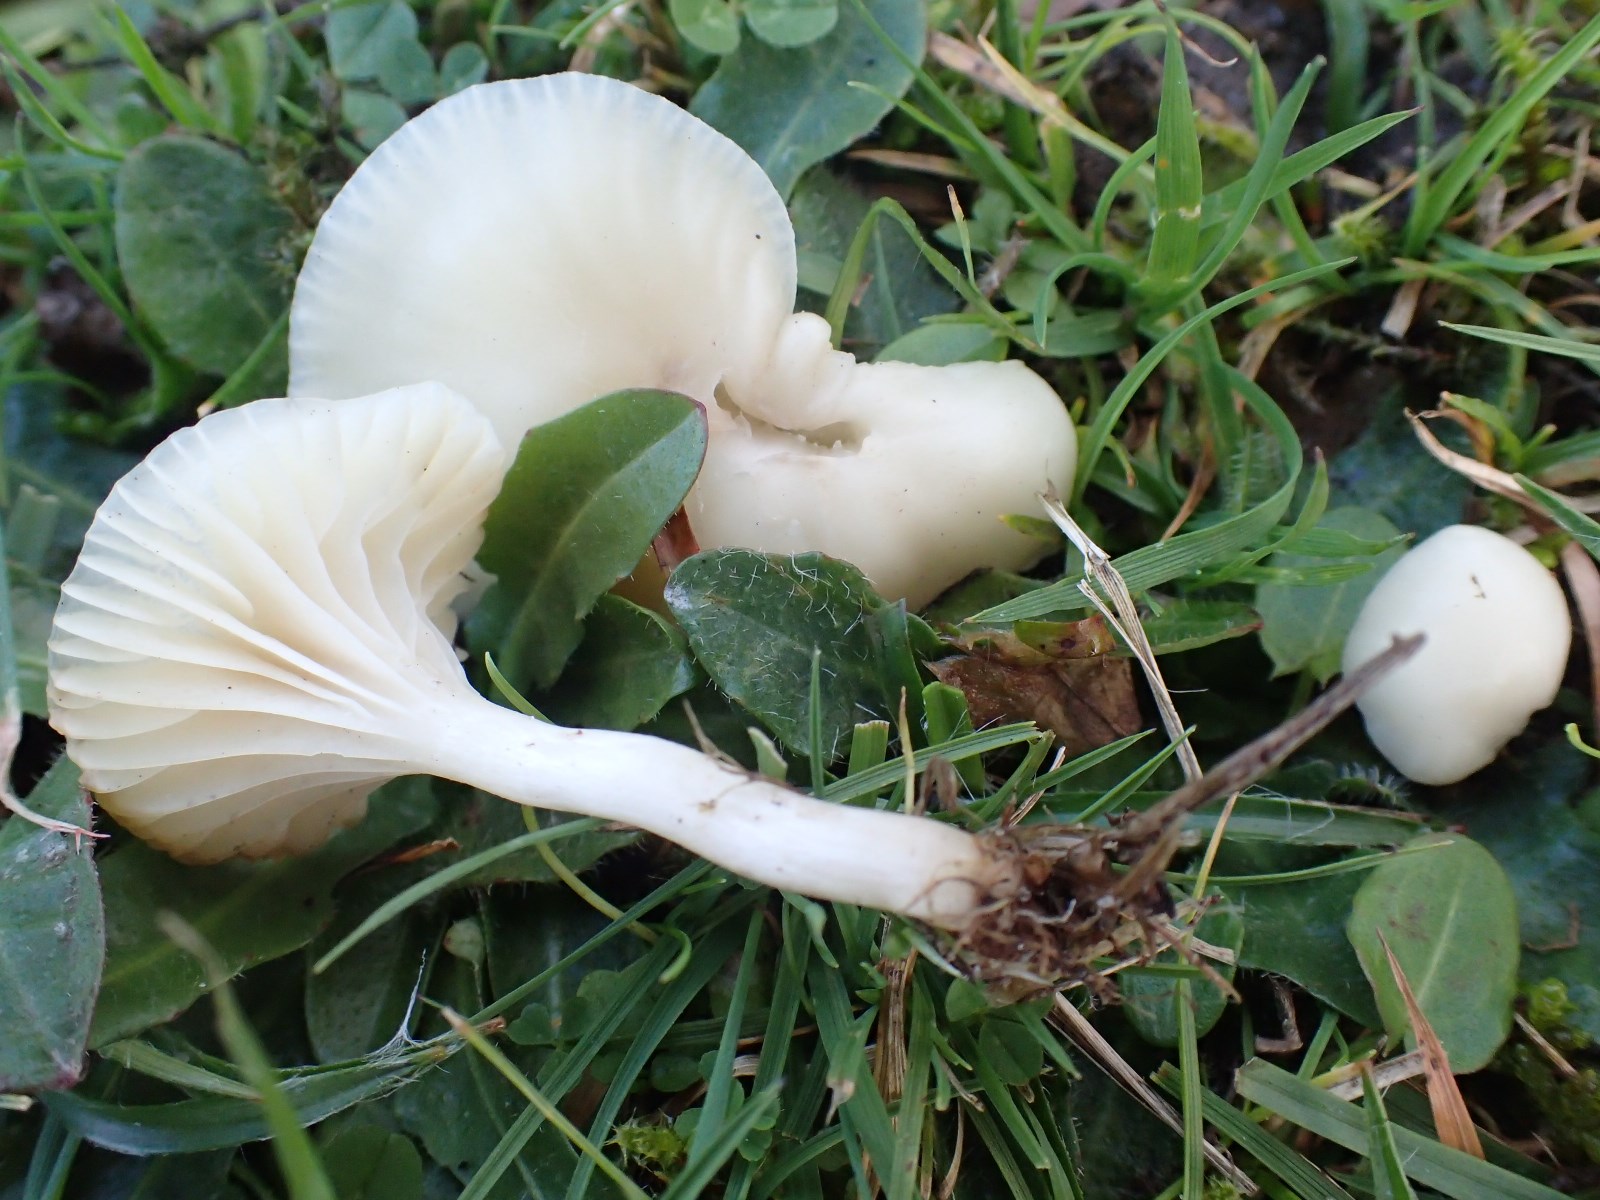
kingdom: Fungi
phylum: Basidiomycota
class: Agaricomycetes
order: Agaricales
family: Hygrophoraceae
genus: Cuphophyllus
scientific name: Cuphophyllus virgineus
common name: snehvid vokshat
